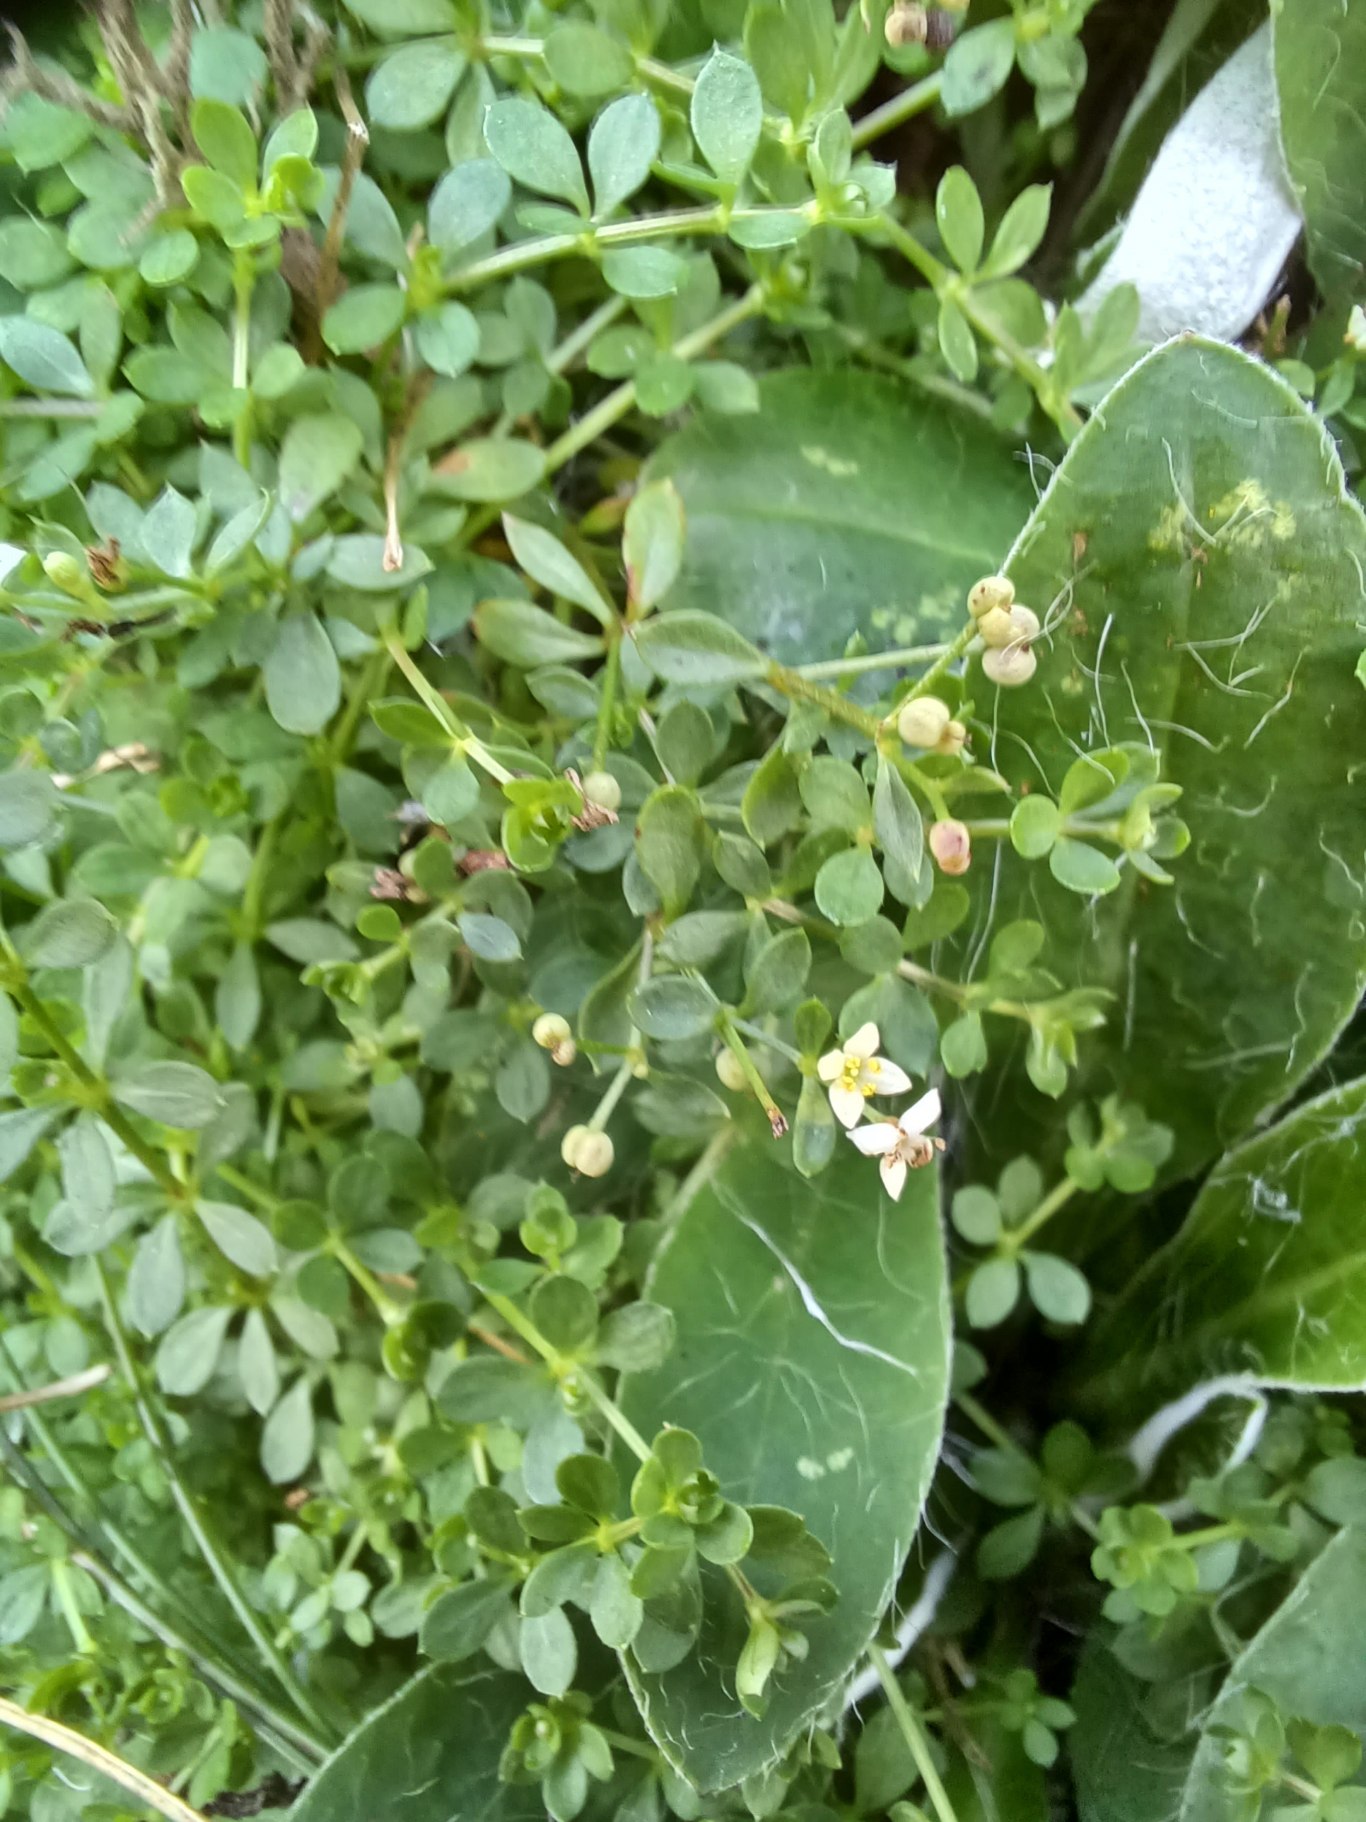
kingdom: Plantae
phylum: Tracheophyta
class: Magnoliopsida
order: Gentianales
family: Rubiaceae
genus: Galium
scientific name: Galium saxatile
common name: Lyng-snerre
